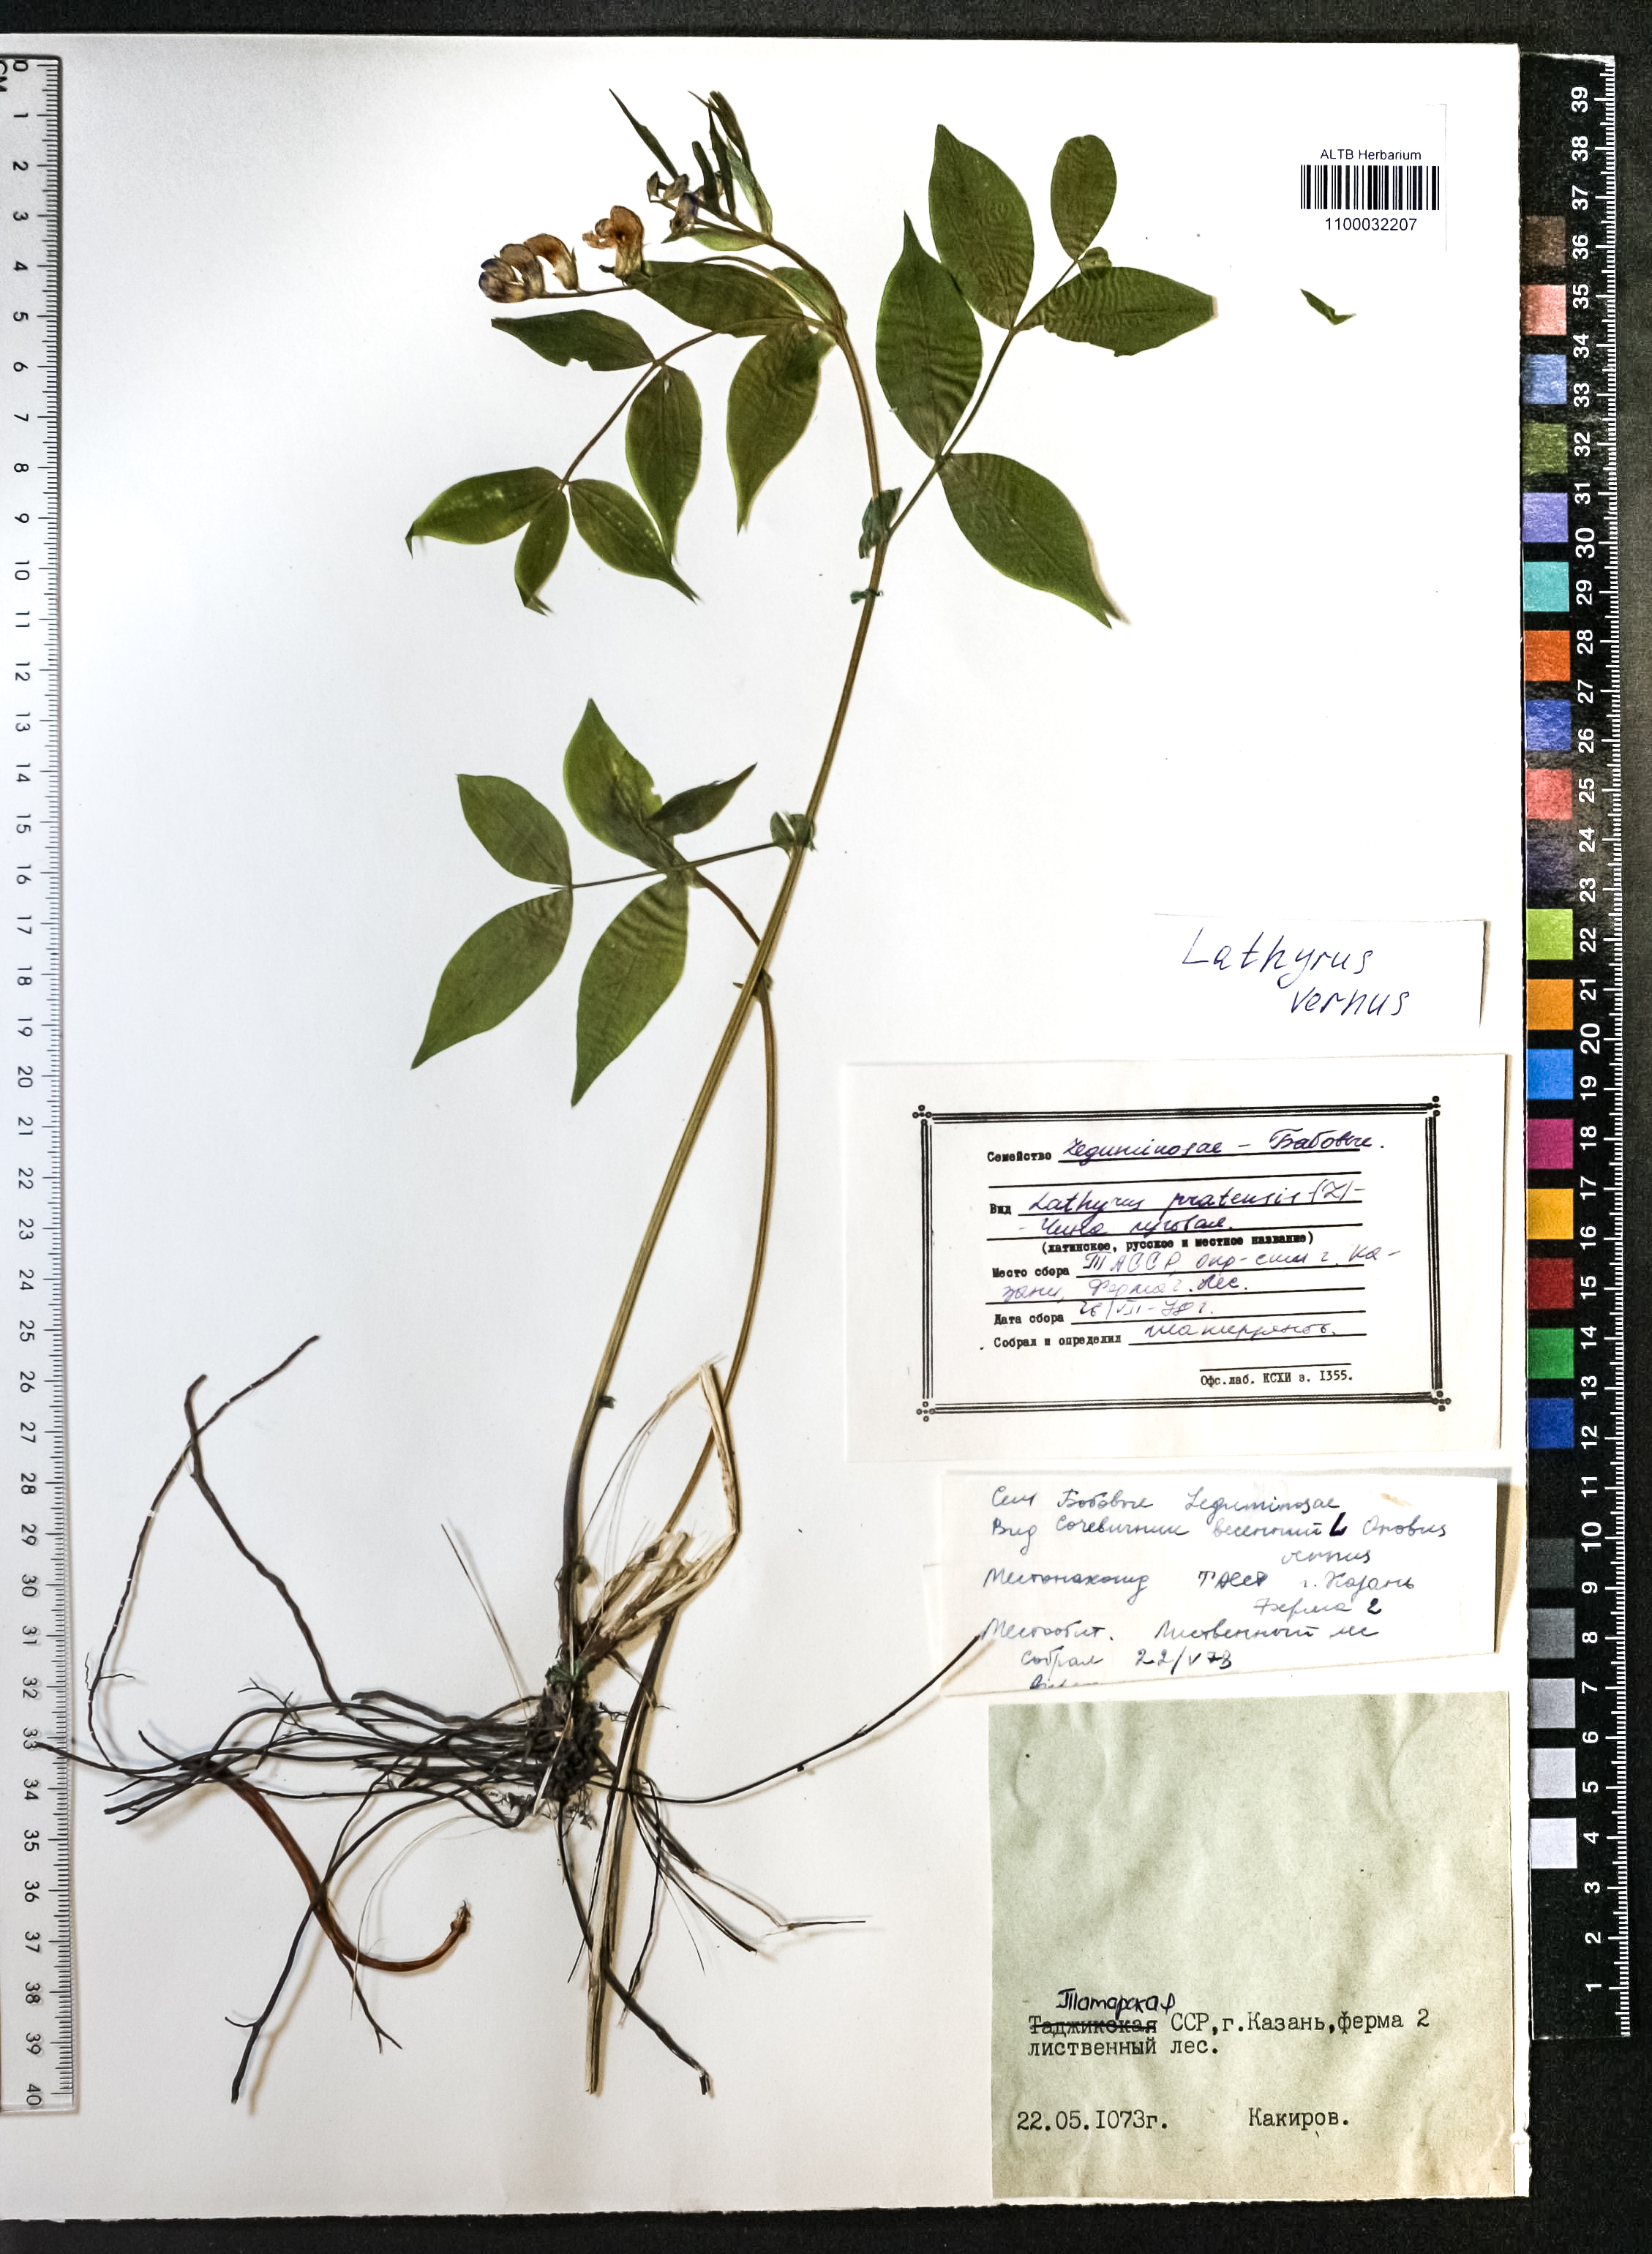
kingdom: Plantae
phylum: Tracheophyta
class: Magnoliopsida
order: Fabales
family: Fabaceae
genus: Lathyrus
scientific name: Lathyrus vernus
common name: Spring pea
